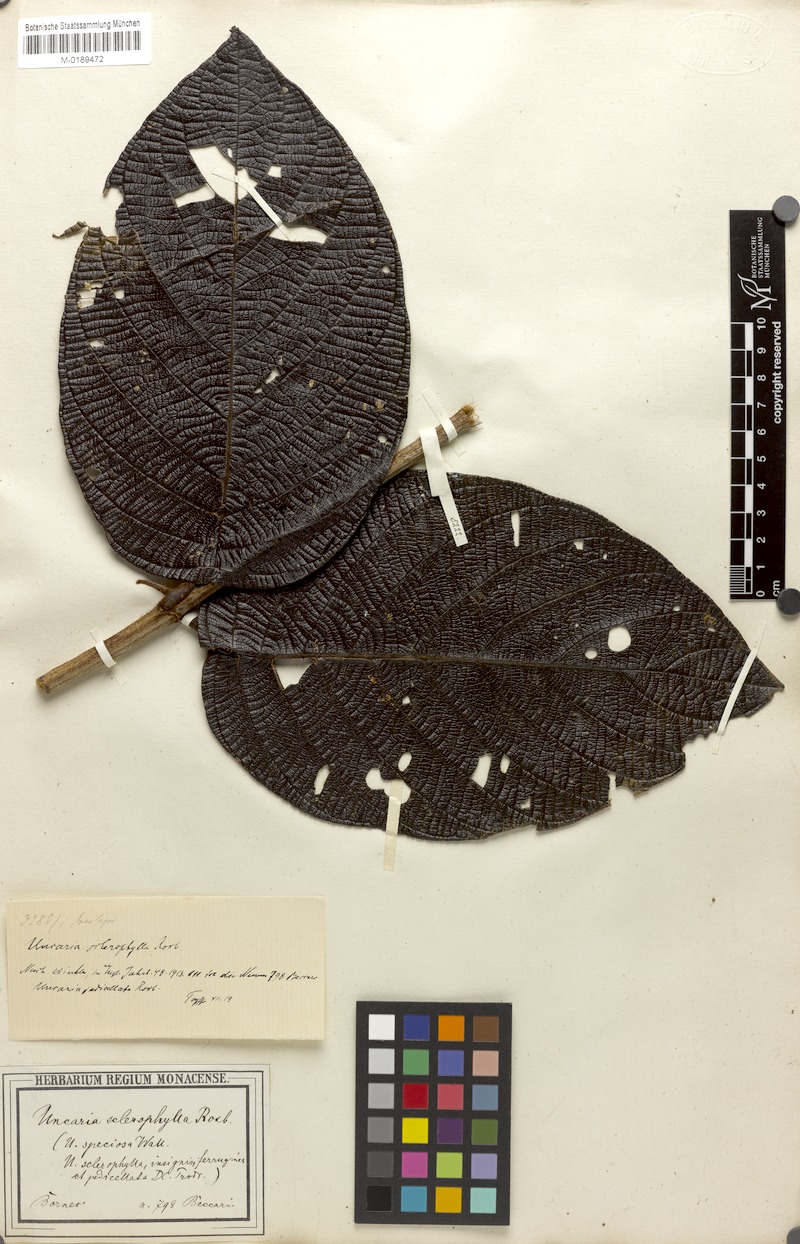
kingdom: Plantae
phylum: Tracheophyta
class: Magnoliopsida
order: Gentianales
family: Rubiaceae
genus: Uncaria
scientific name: Uncaria cordata
